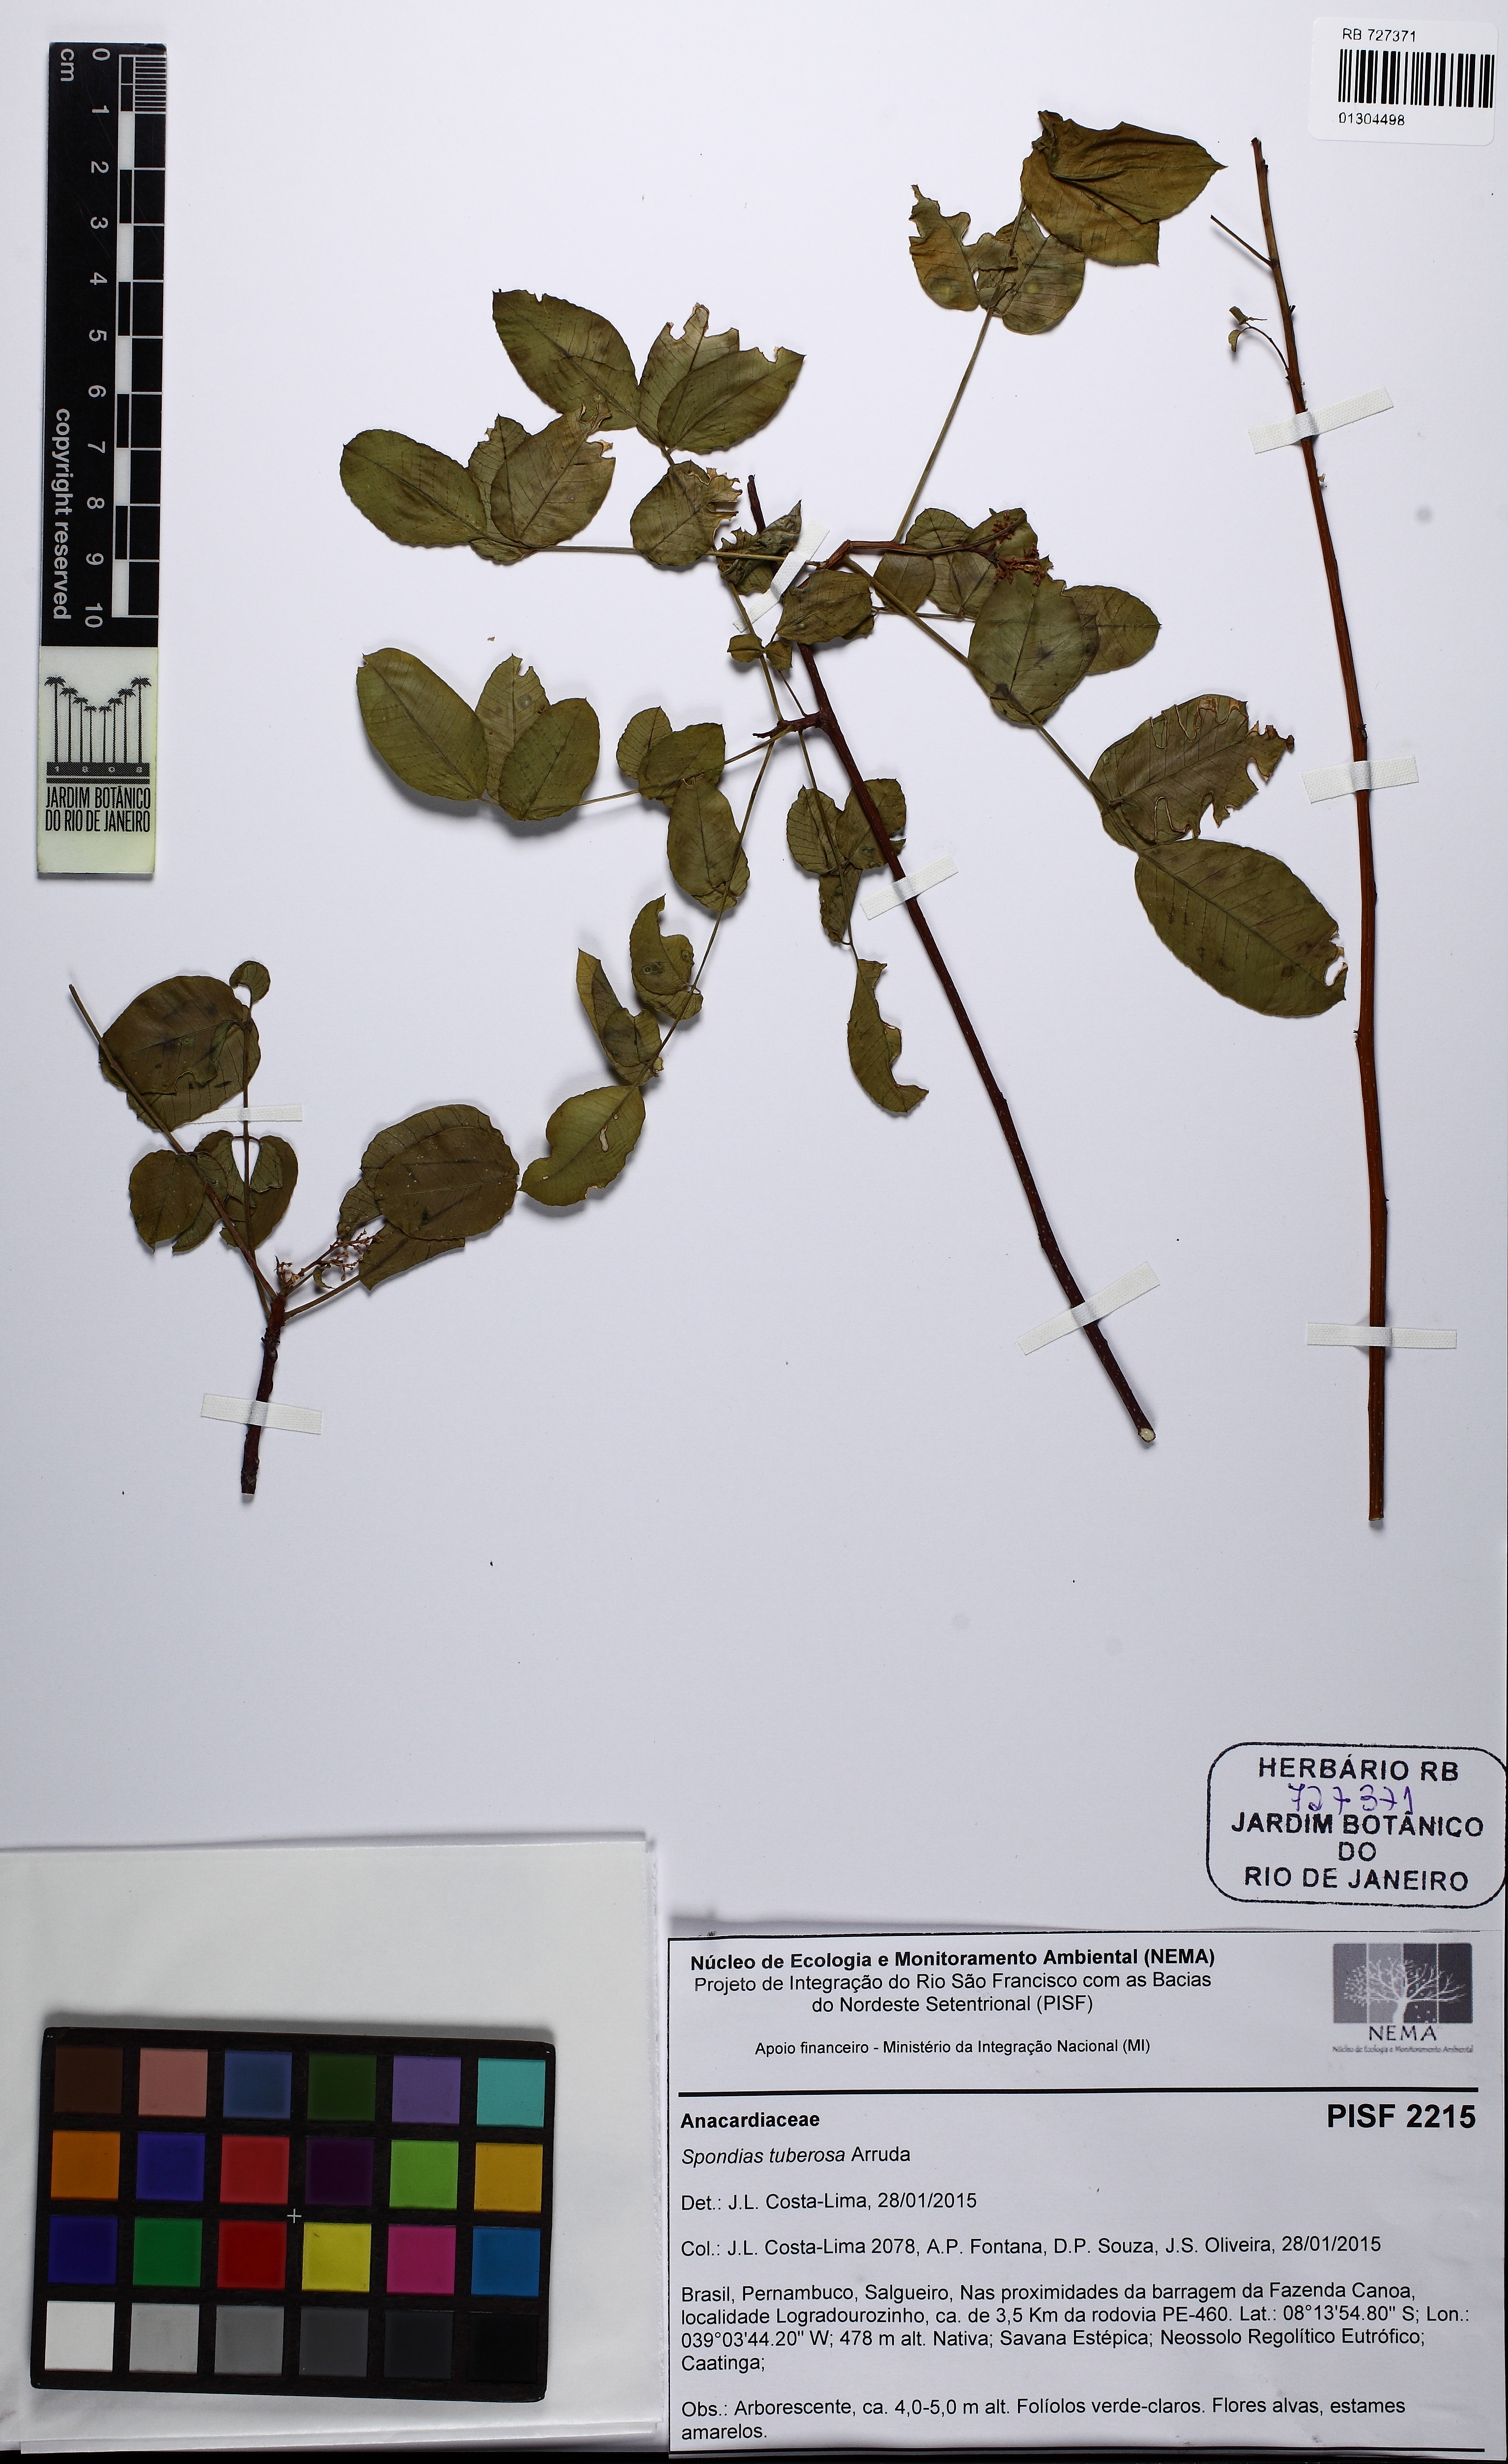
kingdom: Plantae
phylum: Tracheophyta
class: Magnoliopsida
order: Sapindales
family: Anacardiaceae
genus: Spondias
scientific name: Spondias tuberosa
